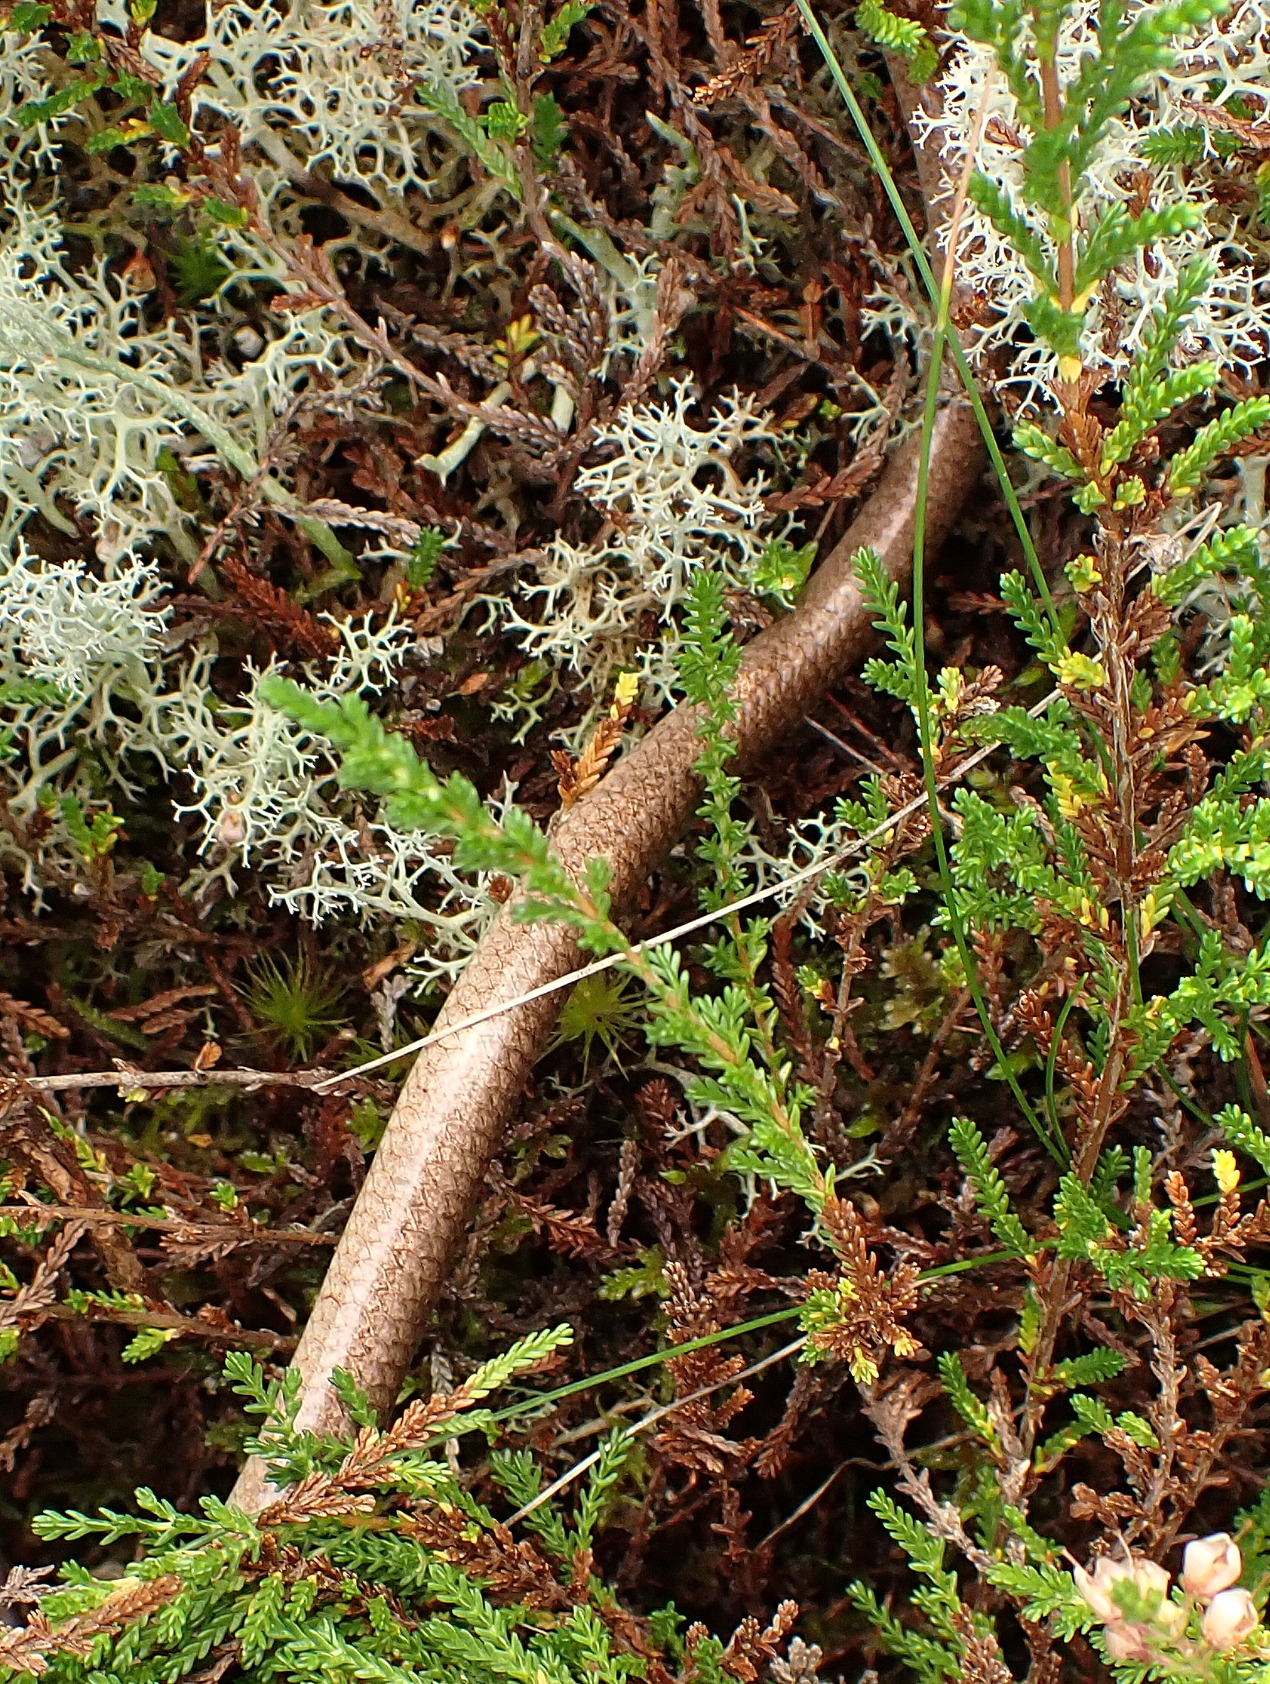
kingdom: Animalia
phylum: Chordata
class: Squamata
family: Anguidae
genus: Anguis
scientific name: Anguis fragilis
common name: Stålorm
